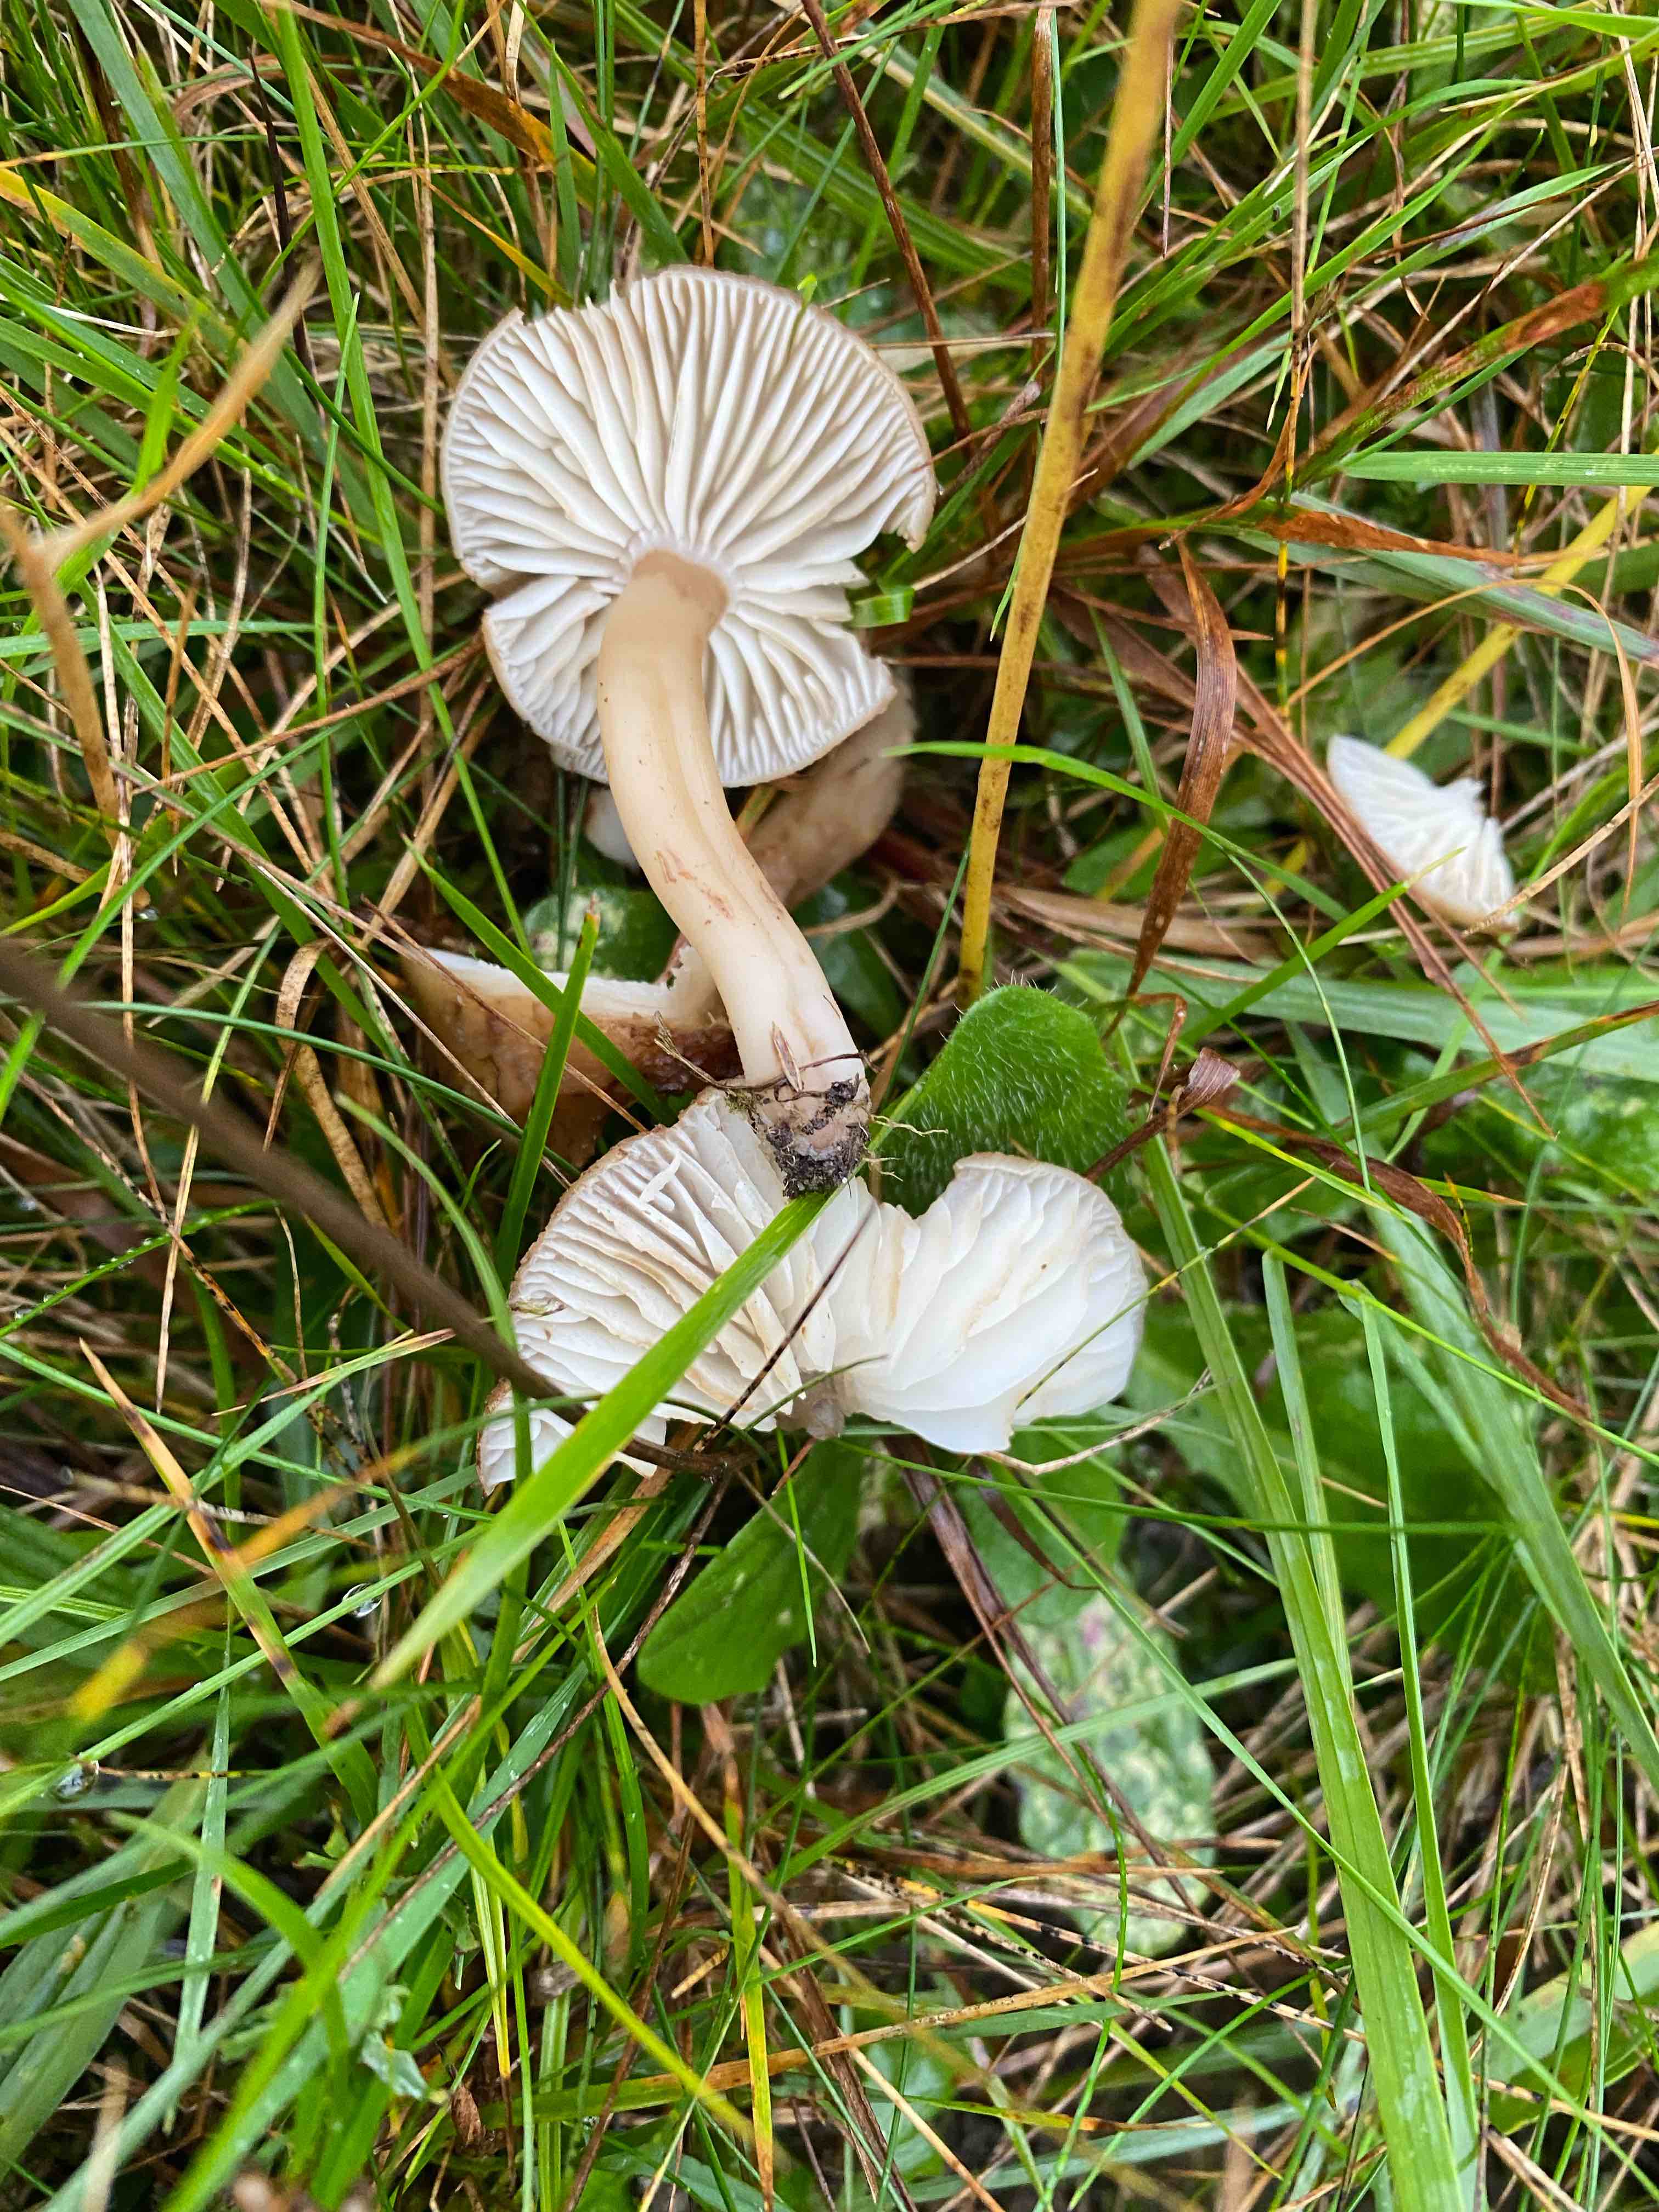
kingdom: Fungi
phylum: Basidiomycota
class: Agaricomycetes
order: Agaricales
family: Hygrophoraceae
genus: Hygrocybe
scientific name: Hygrocybe ingrata
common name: Jensens vokshat
